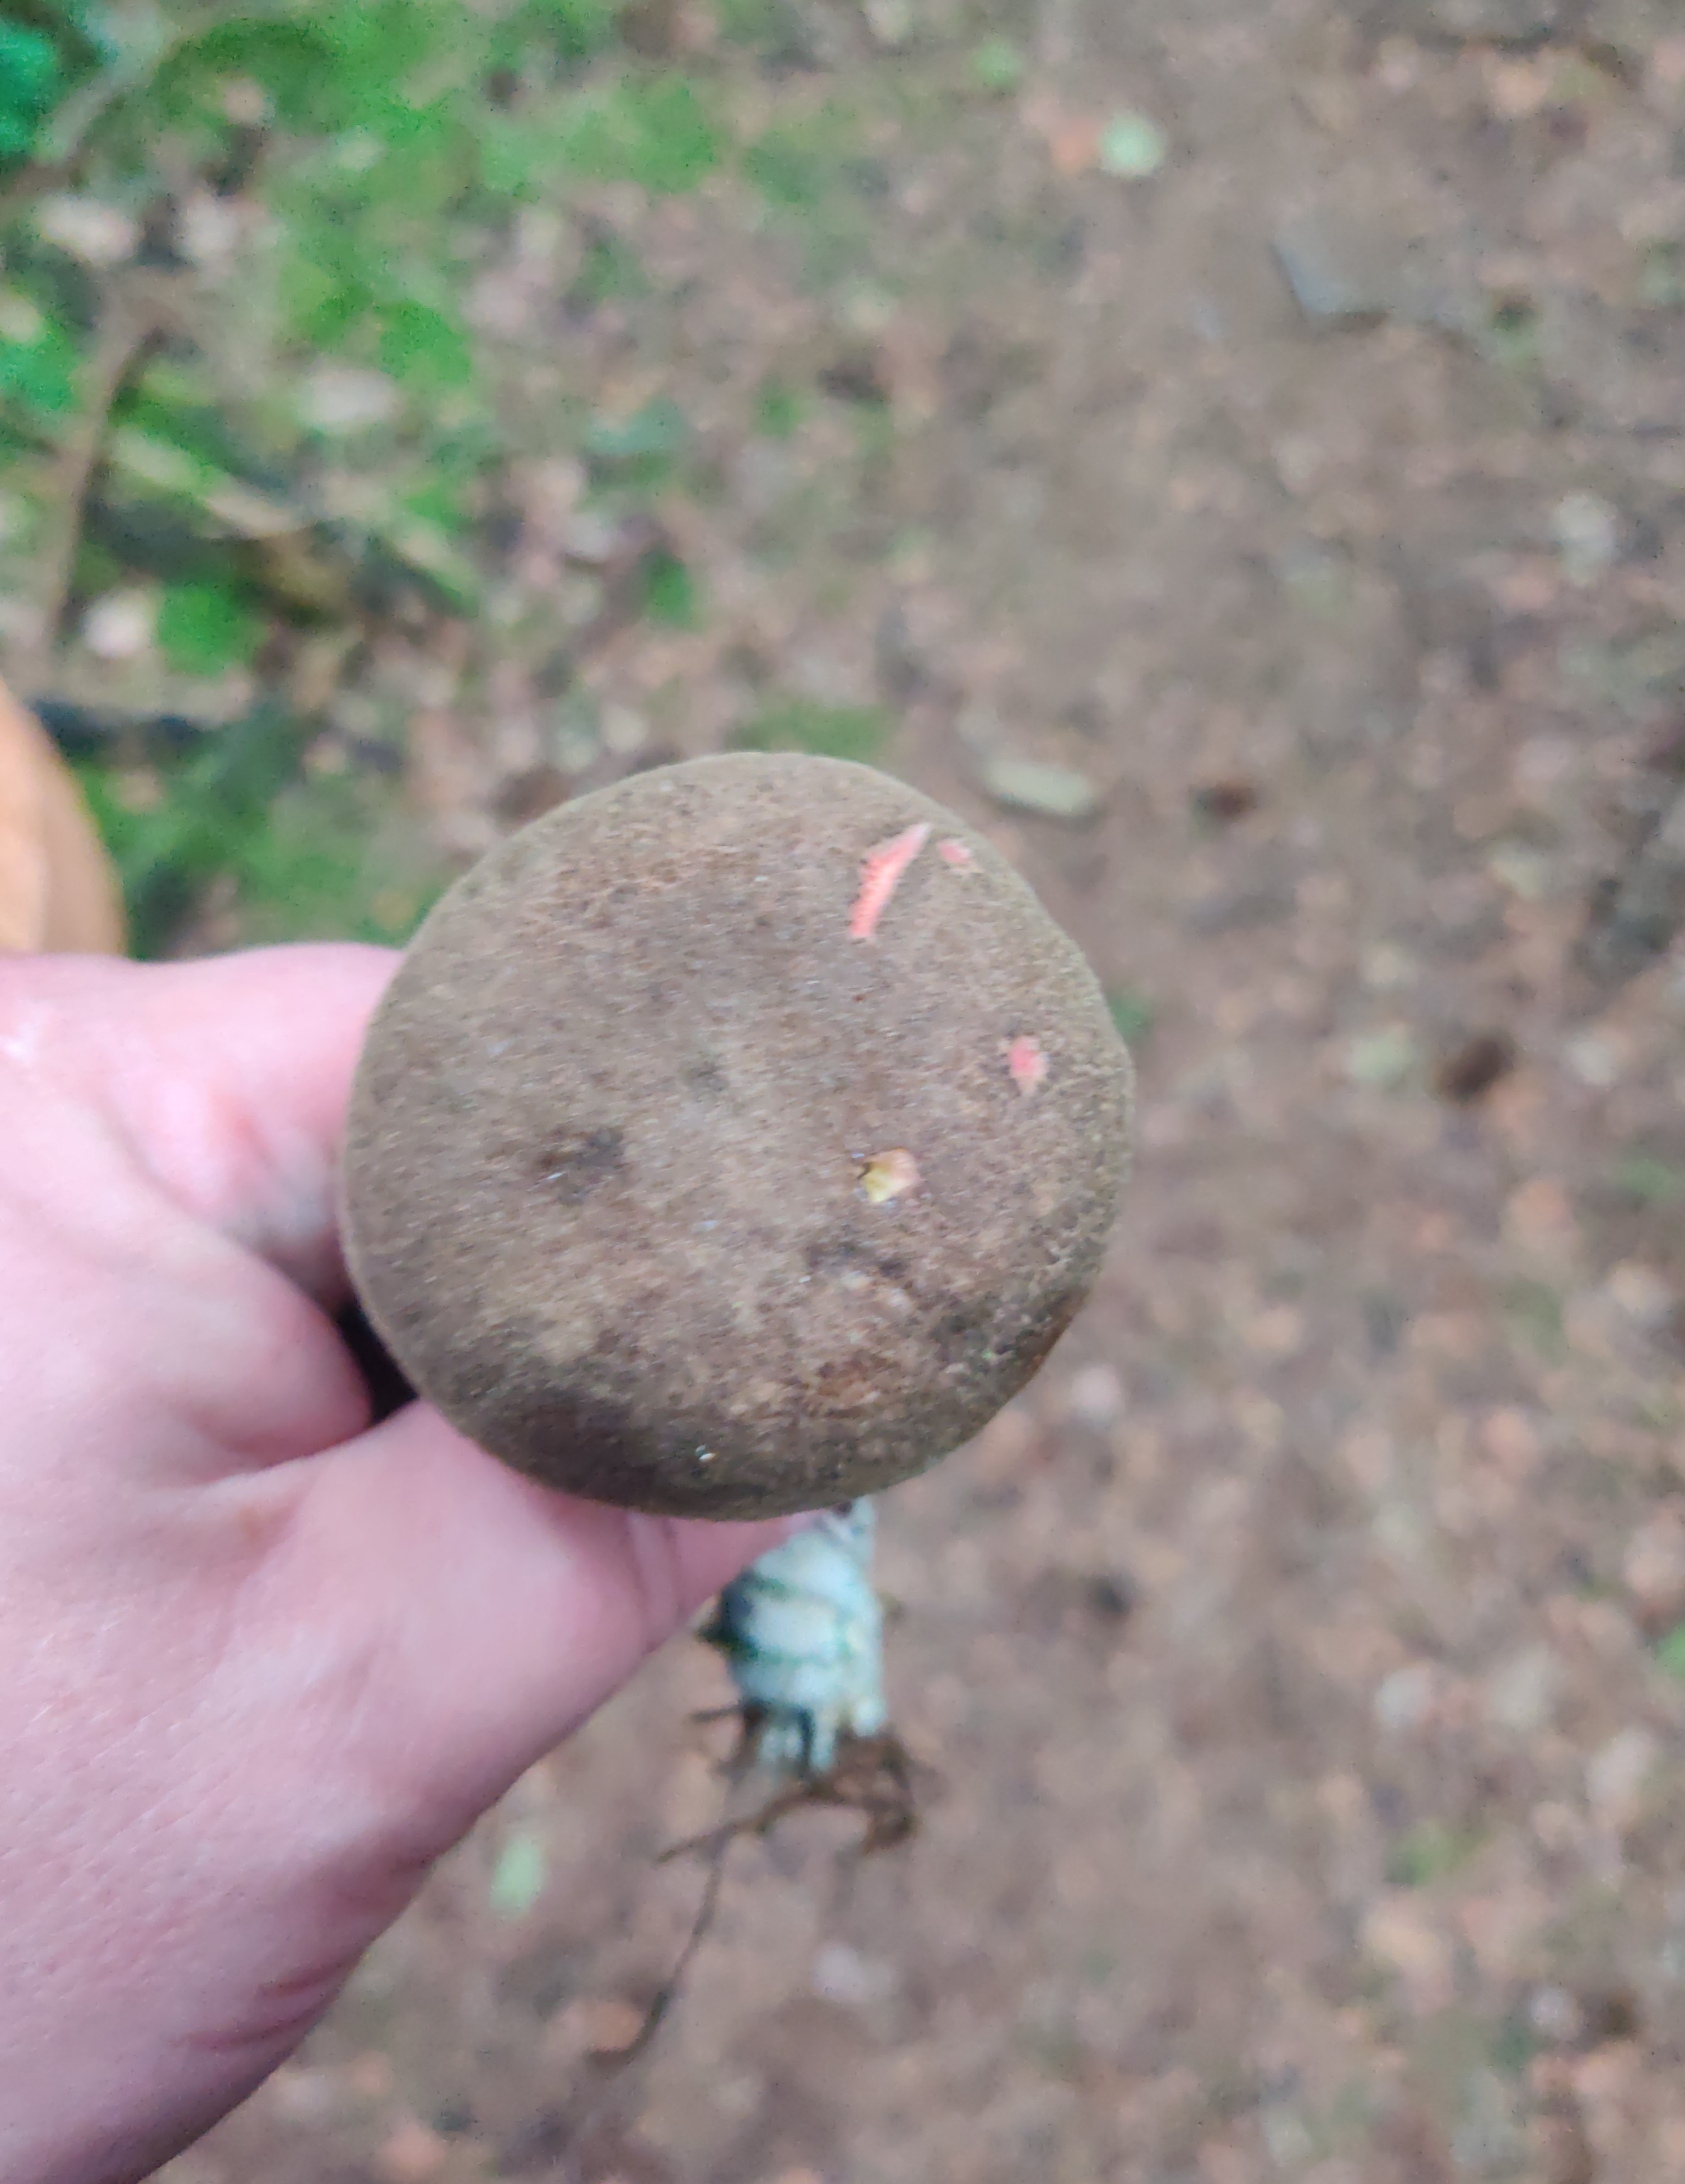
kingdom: Fungi
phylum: Basidiomycota
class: Agaricomycetes
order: Boletales
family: Boletaceae
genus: Xerocomellus
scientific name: Xerocomellus
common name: dværgrørhat
